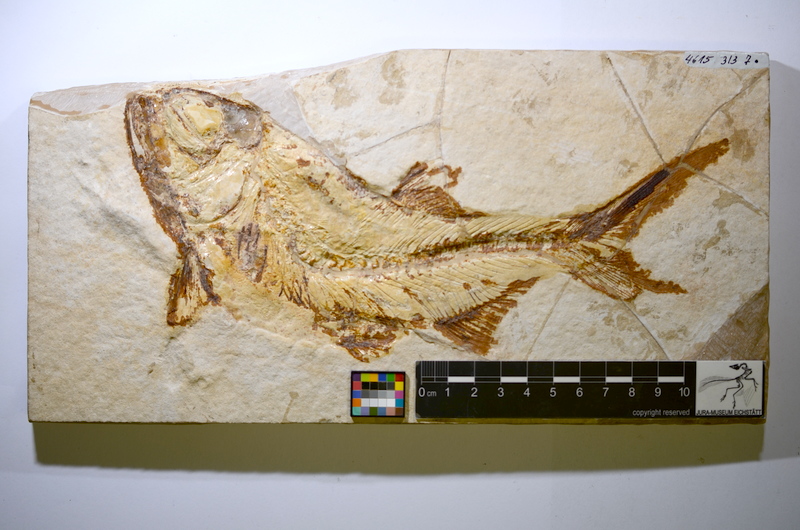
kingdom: Animalia
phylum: Chordata
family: Eurycormidae
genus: Eurycormus
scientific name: Eurycormus speciosus
